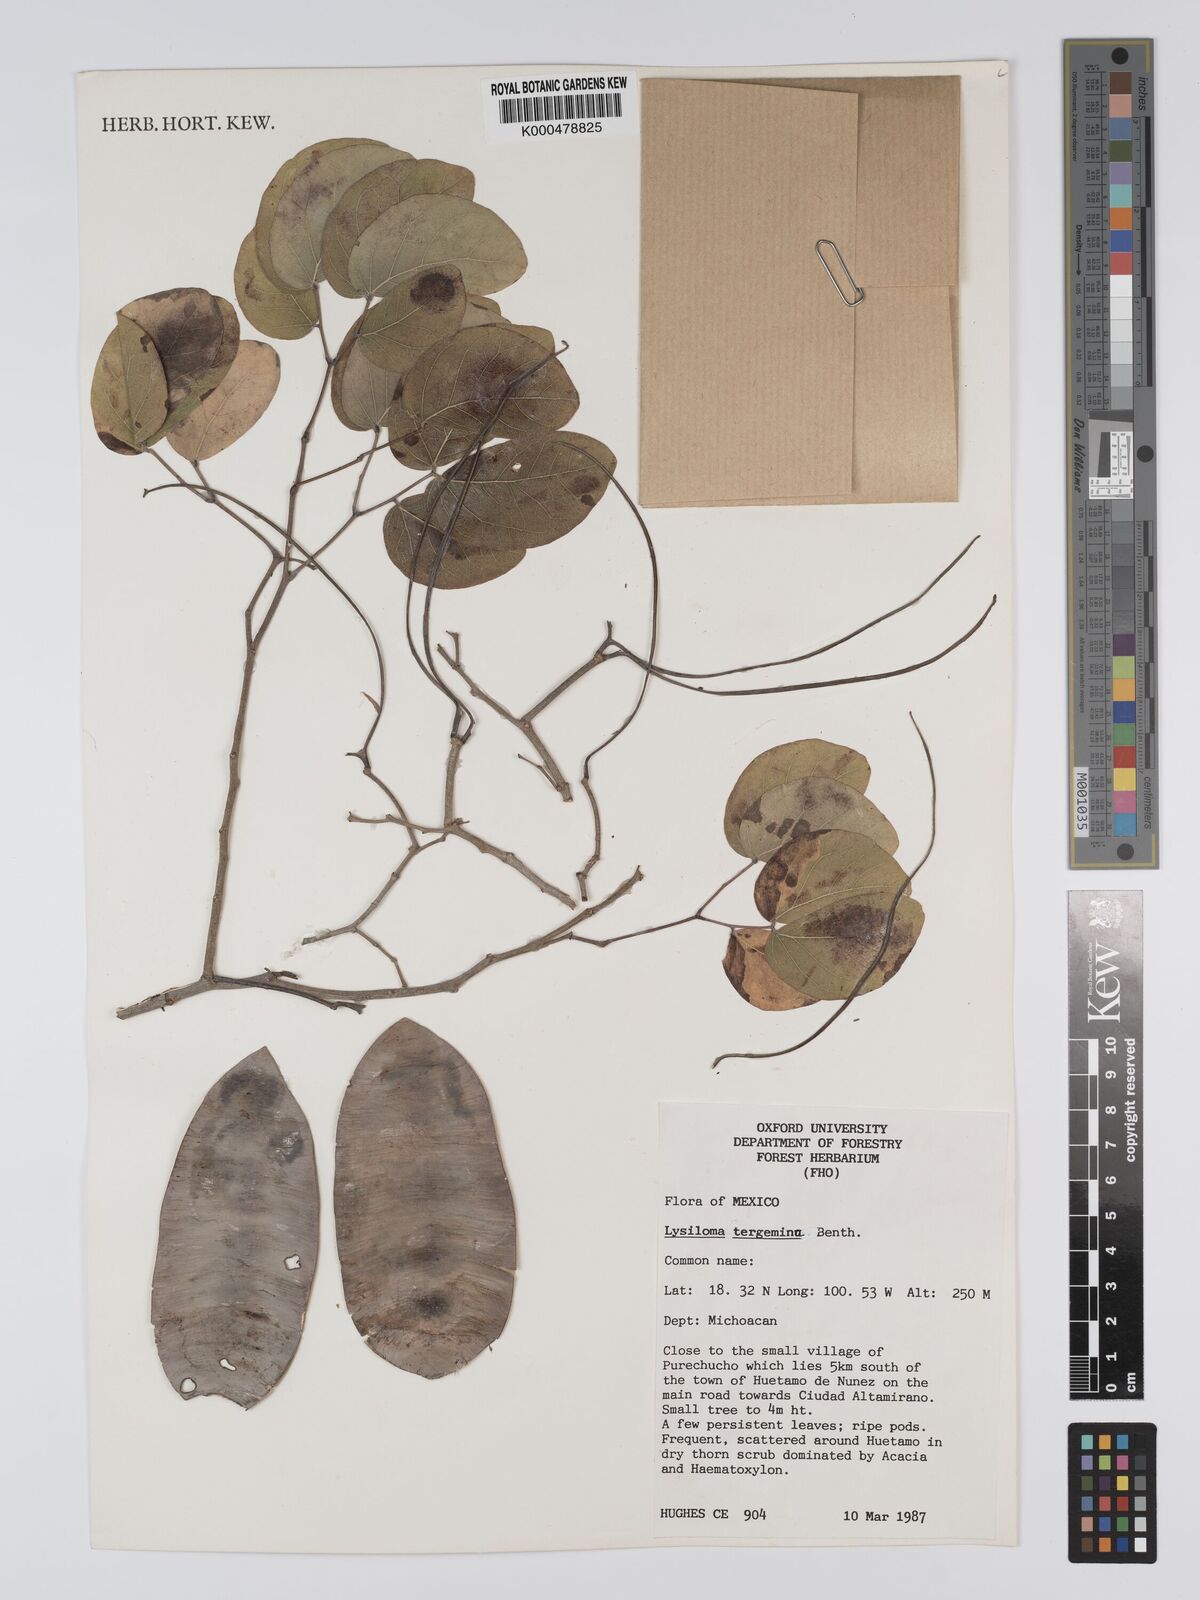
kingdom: Plantae
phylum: Tracheophyta
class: Magnoliopsida
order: Fabales
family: Fabaceae
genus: Lysiloma
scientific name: Lysiloma tergeminum
